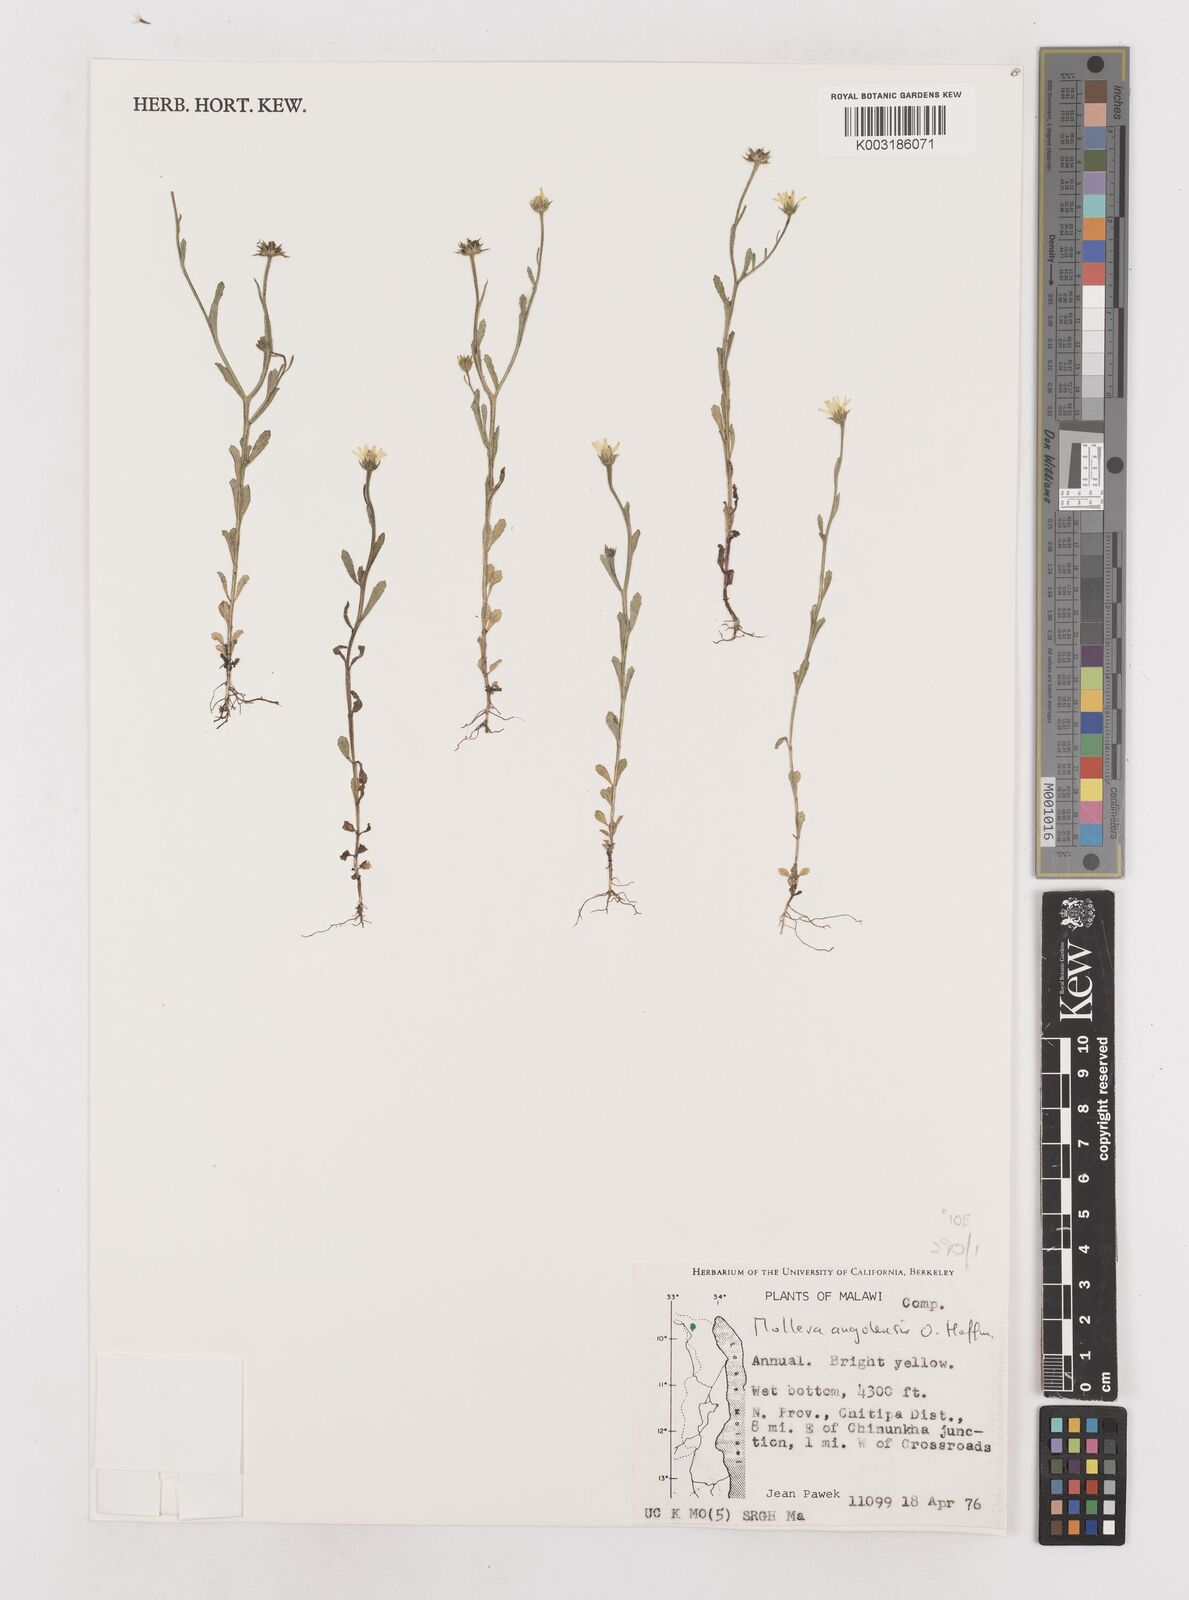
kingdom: Plantae
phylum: Tracheophyta
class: Magnoliopsida
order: Asterales
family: Asteraceae
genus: Calostephane
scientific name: Calostephane angolensis
